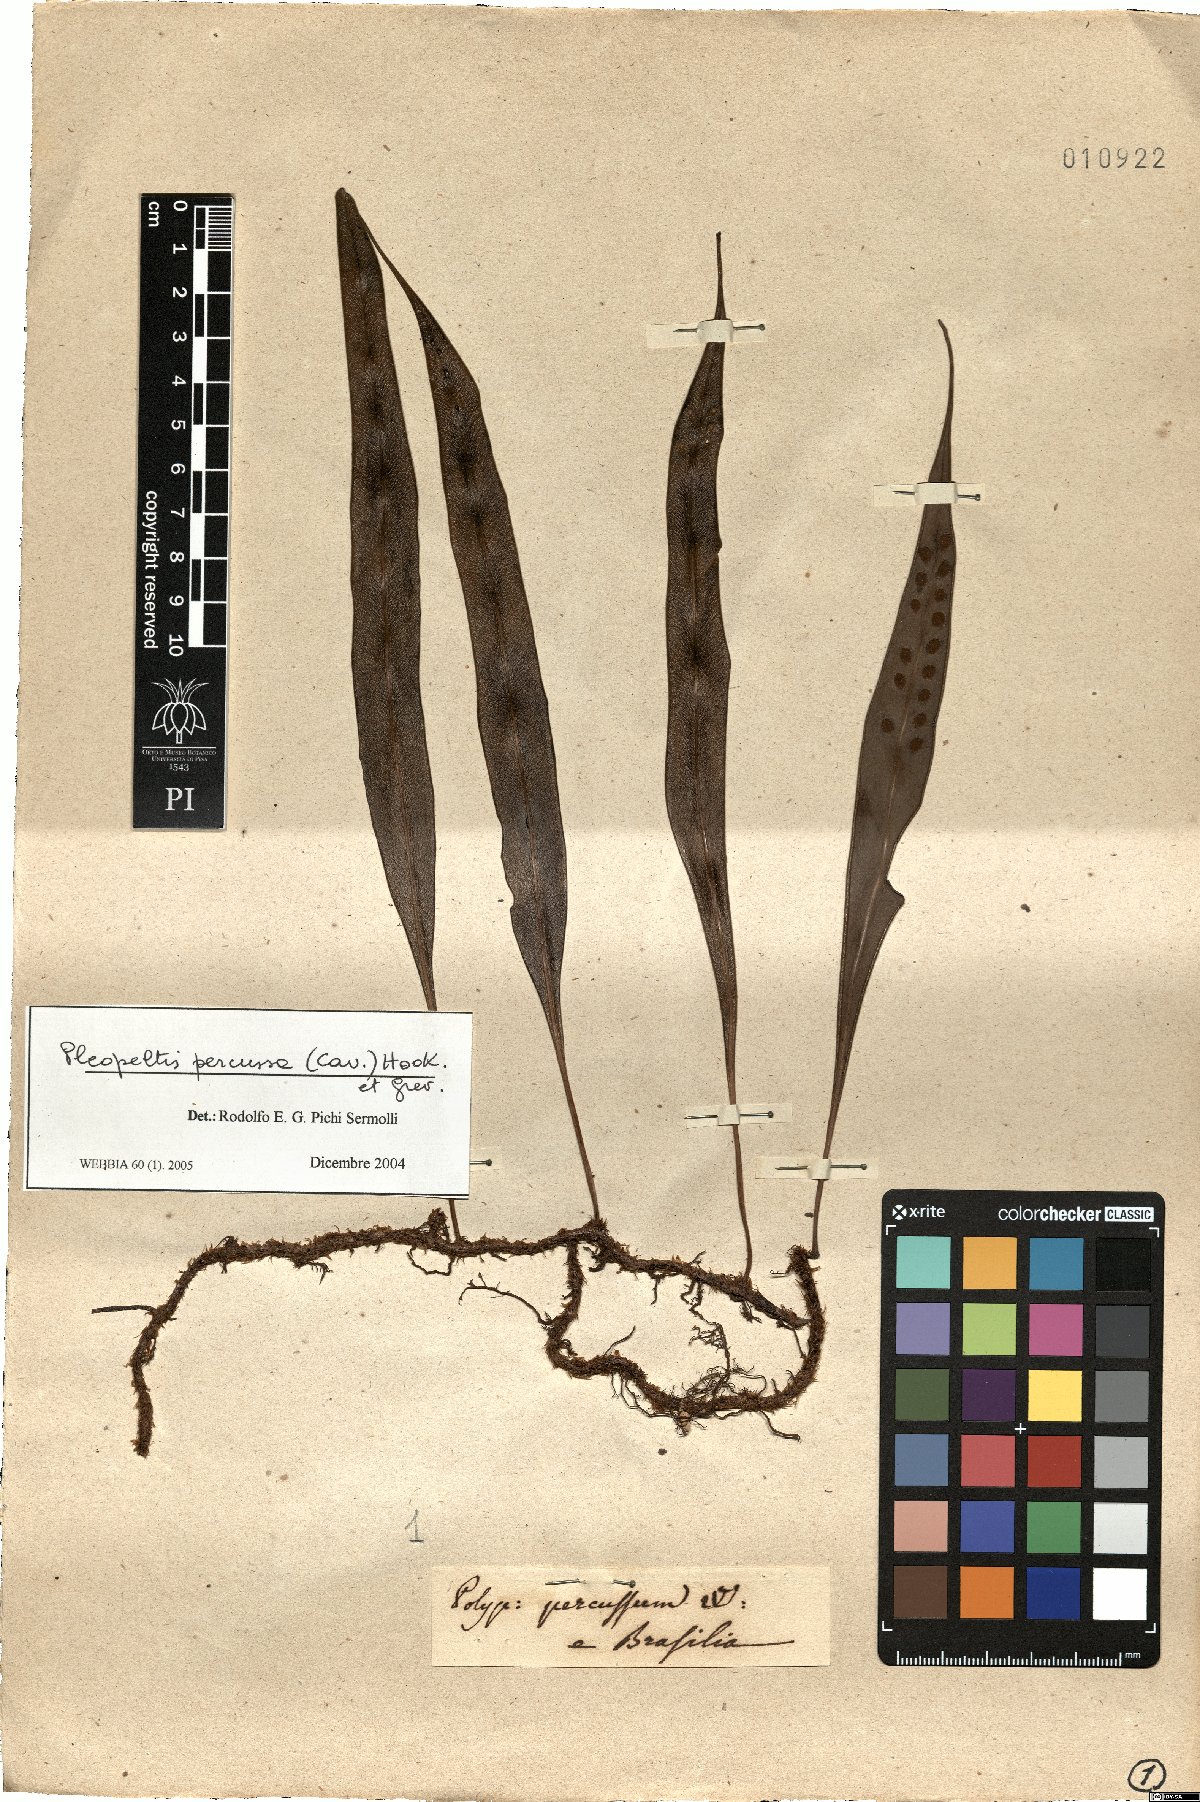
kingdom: Plantae
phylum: Tracheophyta
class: Polypodiopsida
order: Polypodiales
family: Polypodiaceae
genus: Microgramma
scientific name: Microgramma percussa
